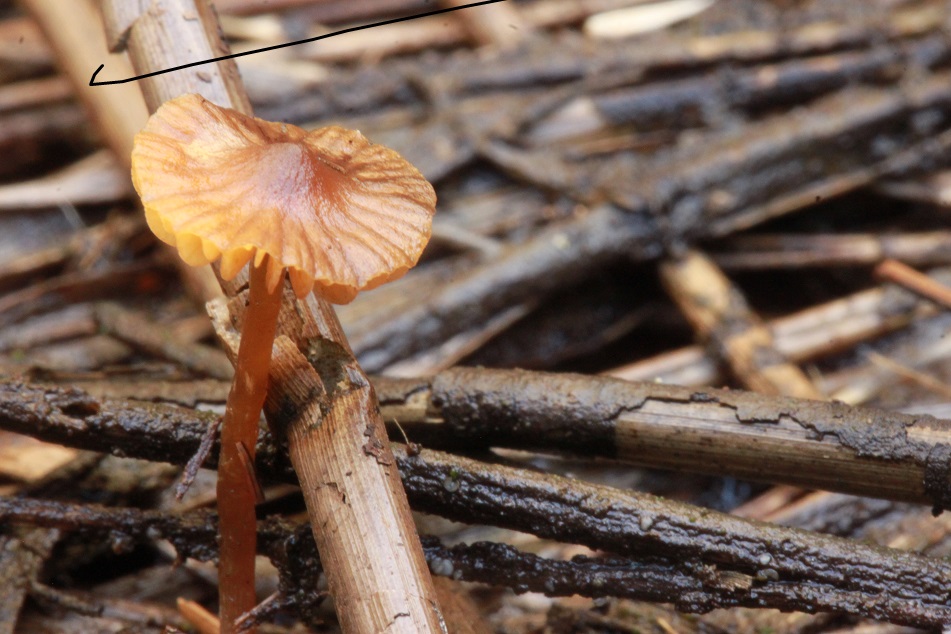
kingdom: Fungi
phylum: Basidiomycota
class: Agaricomycetes
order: Agaricales
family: Hymenogastraceae
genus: Galerina
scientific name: Galerina
